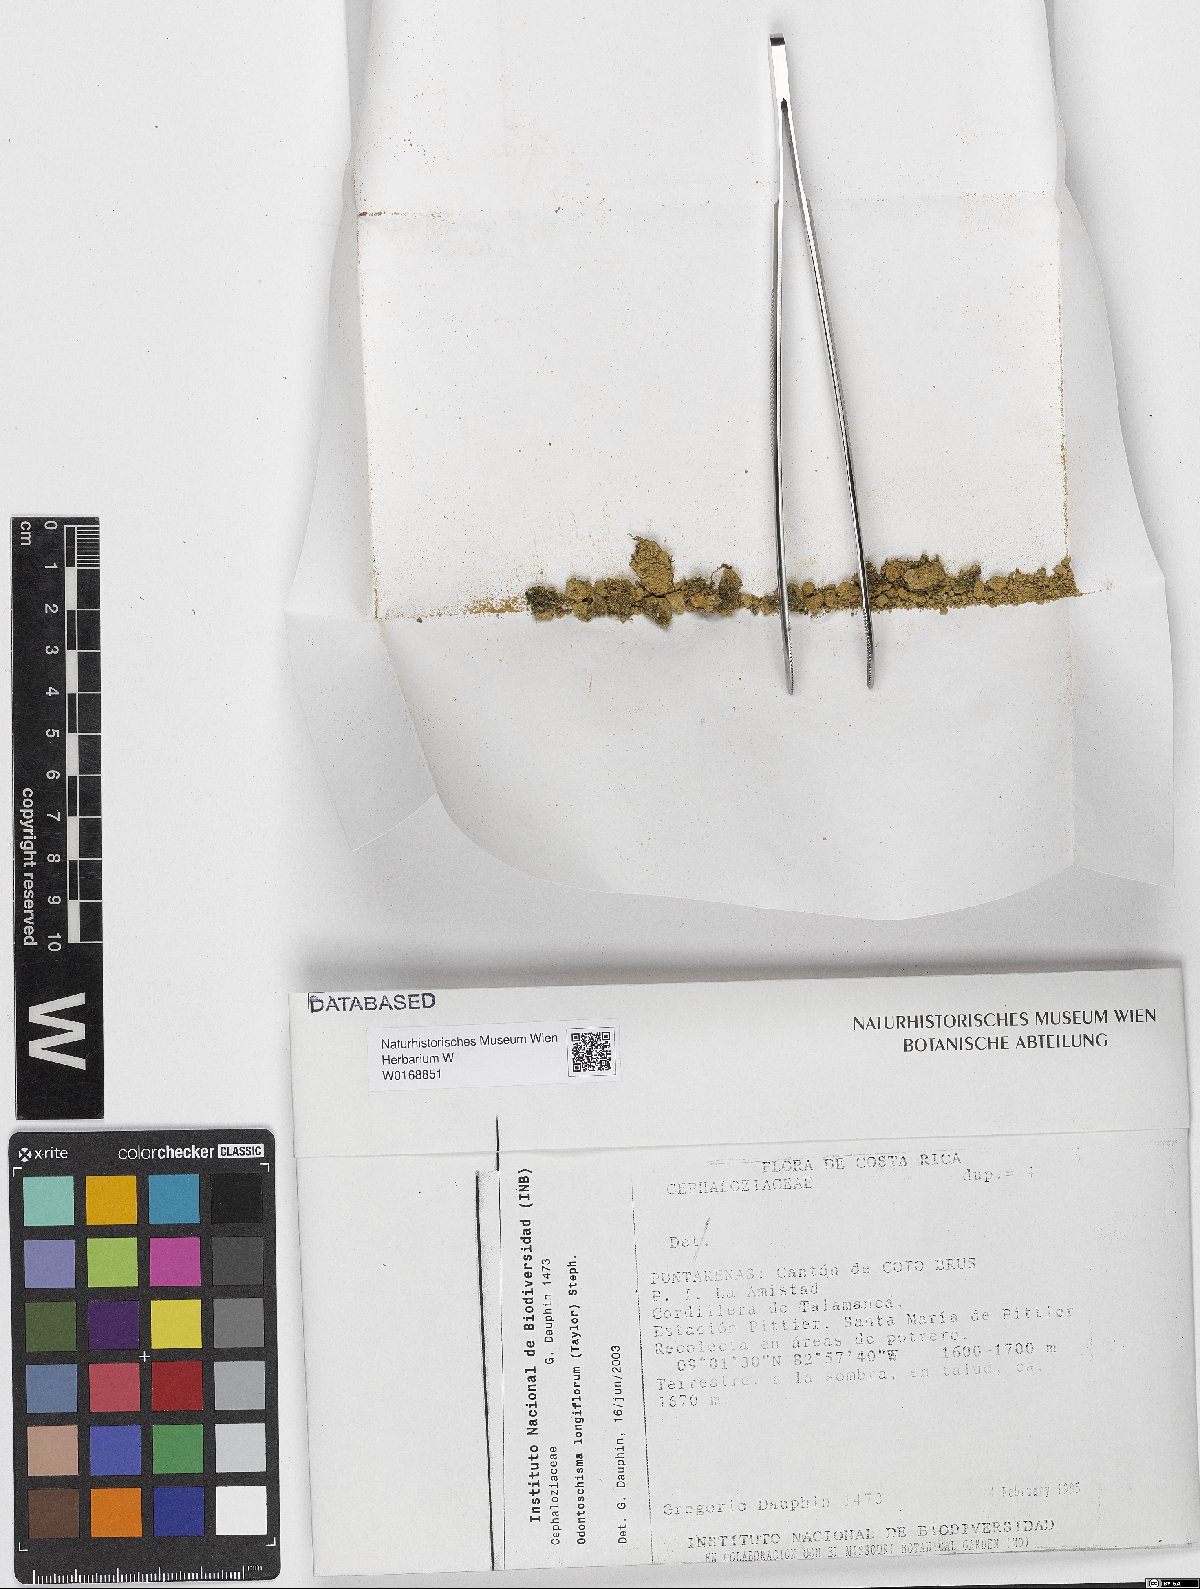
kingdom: Plantae
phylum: Marchantiophyta
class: Jungermanniopsida
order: Jungermanniales
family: Cephaloziaceae
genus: Odontoschisma
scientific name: Odontoschisma longiflorum
